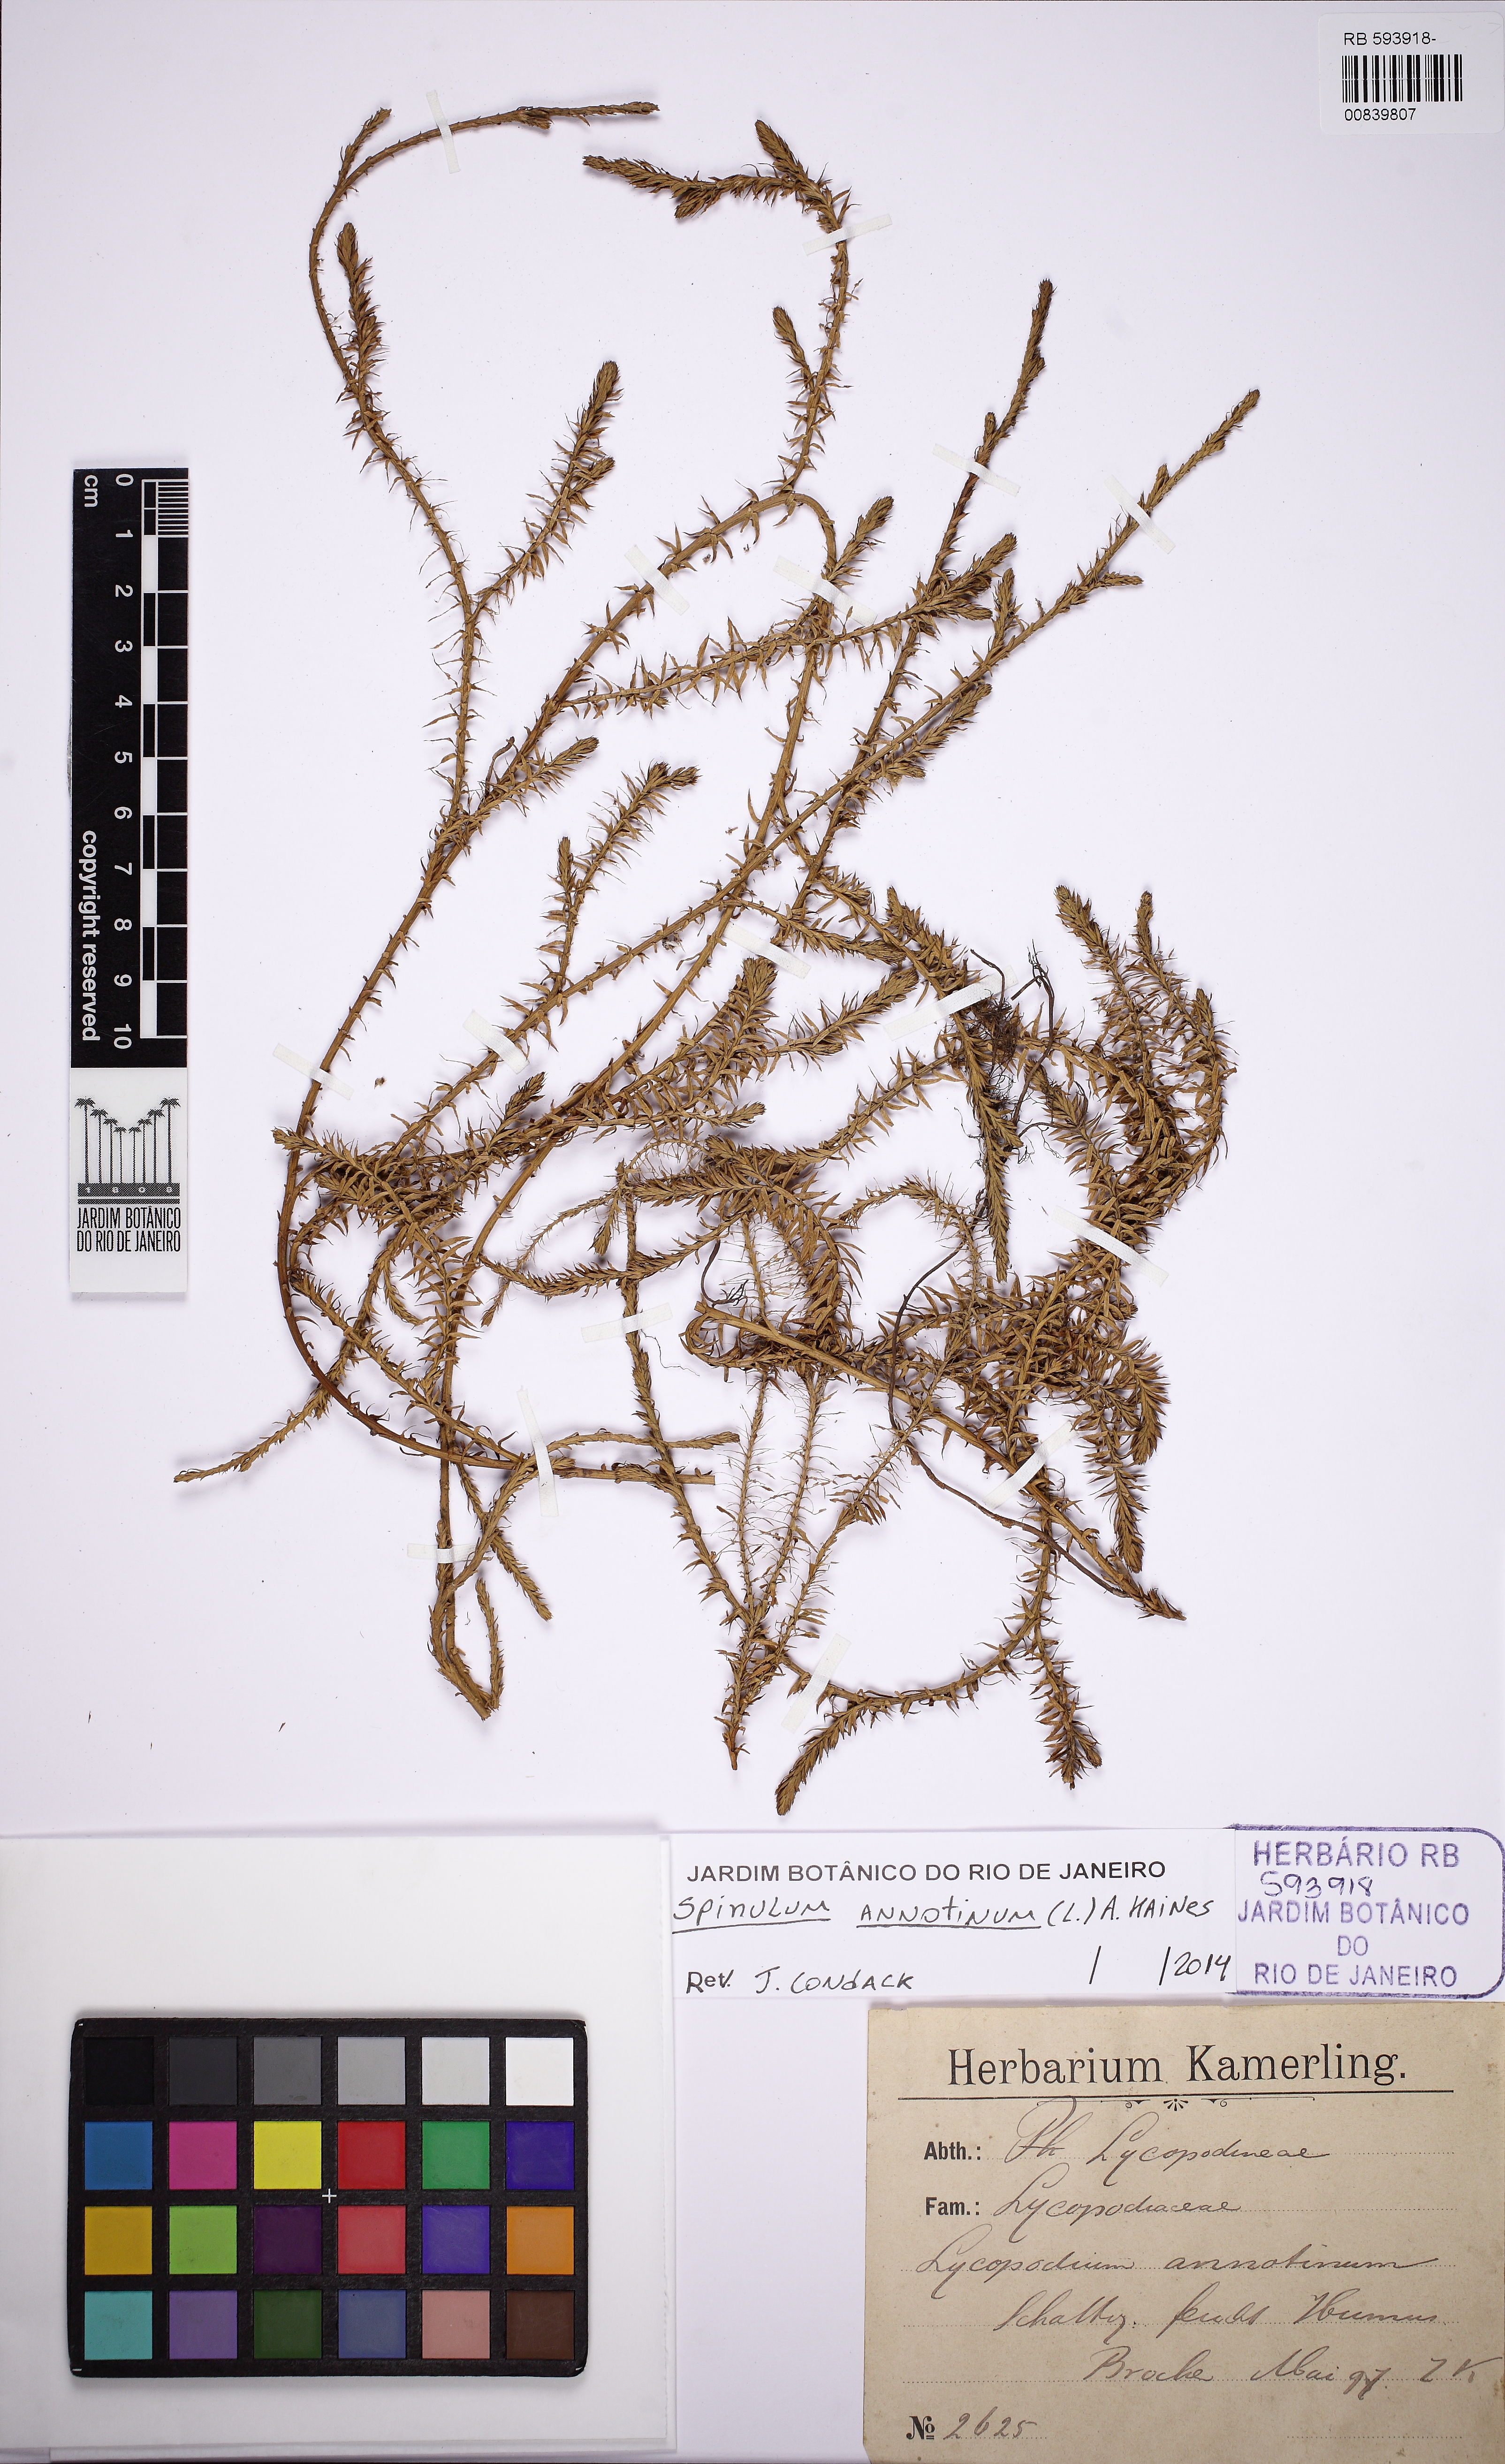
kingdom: Plantae
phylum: Tracheophyta
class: Lycopodiopsida
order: Lycopodiales
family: Lycopodiaceae
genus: Spinulum
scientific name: Spinulum annotinum
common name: Interrupted club-moss
